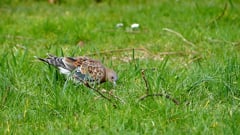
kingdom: Animalia
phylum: Chordata
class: Aves
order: Columbiformes
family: Columbidae
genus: Streptopelia
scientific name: Streptopelia orientalis
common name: Oriental turtle dove
